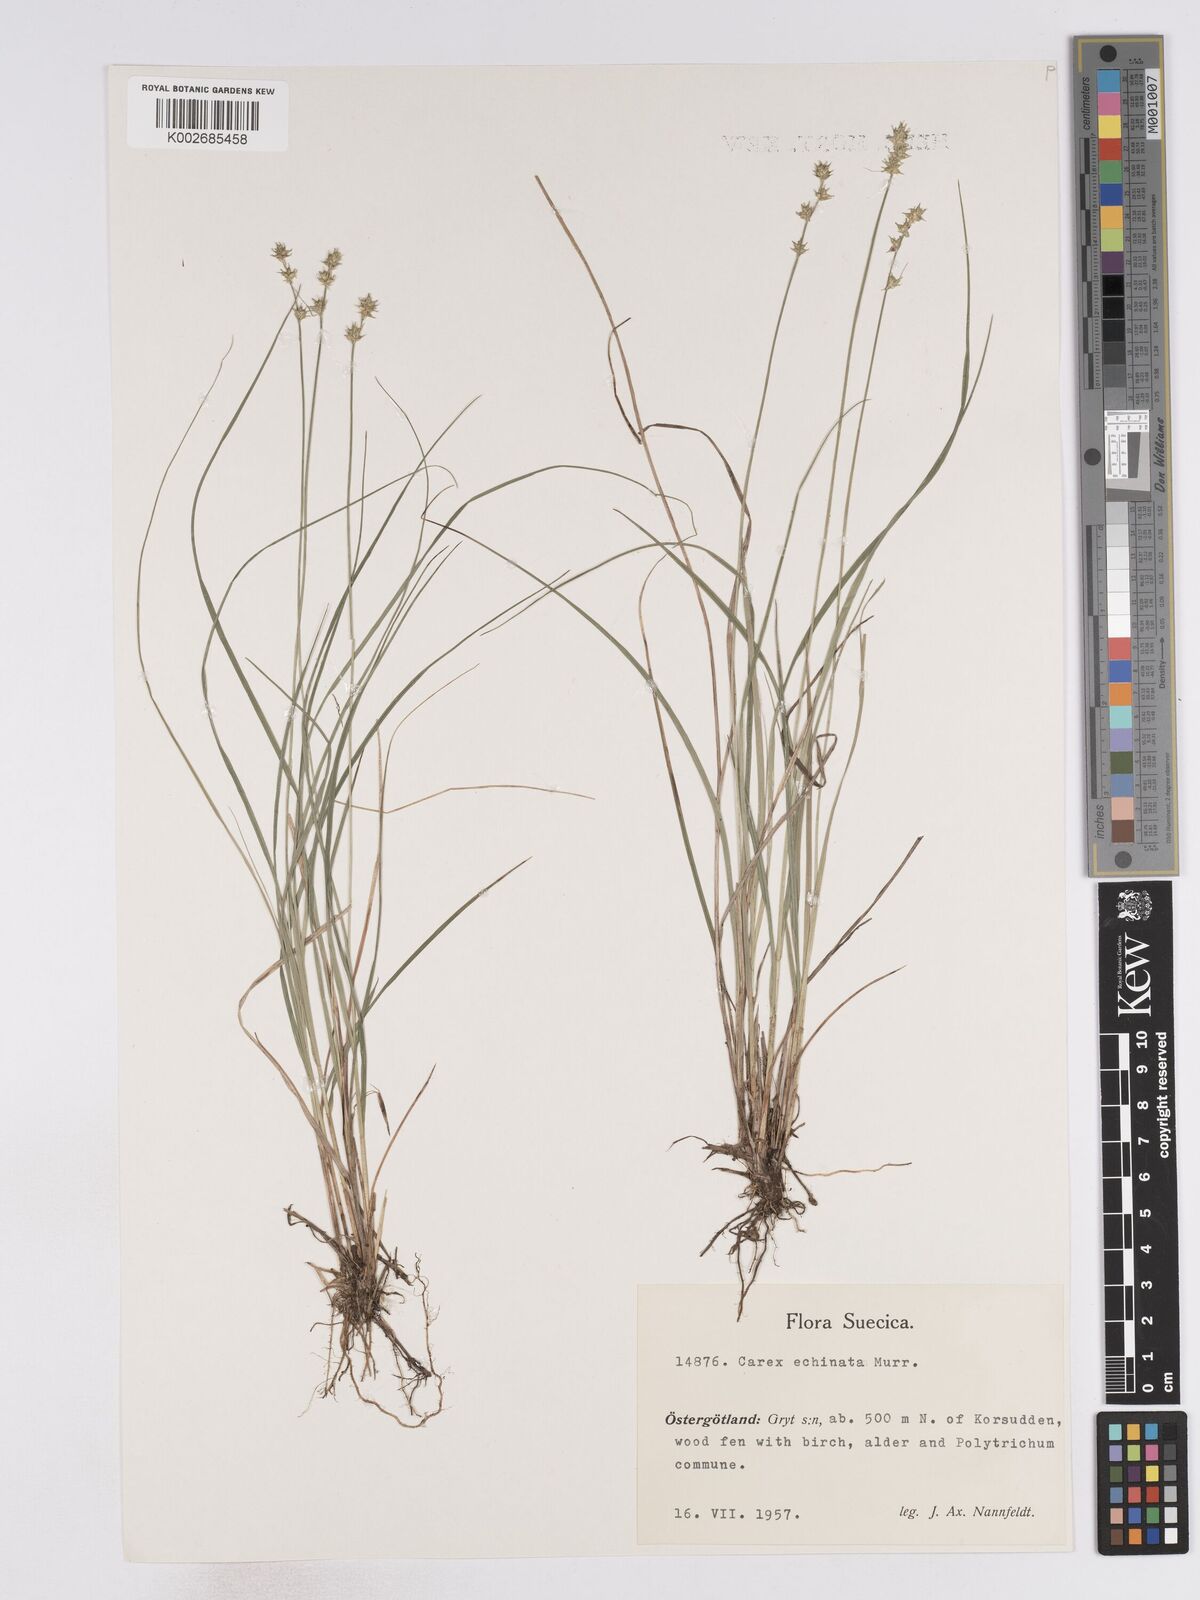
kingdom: Plantae
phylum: Tracheophyta
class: Liliopsida
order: Poales
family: Cyperaceae
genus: Carex
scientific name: Carex echinata
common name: Star sedge
